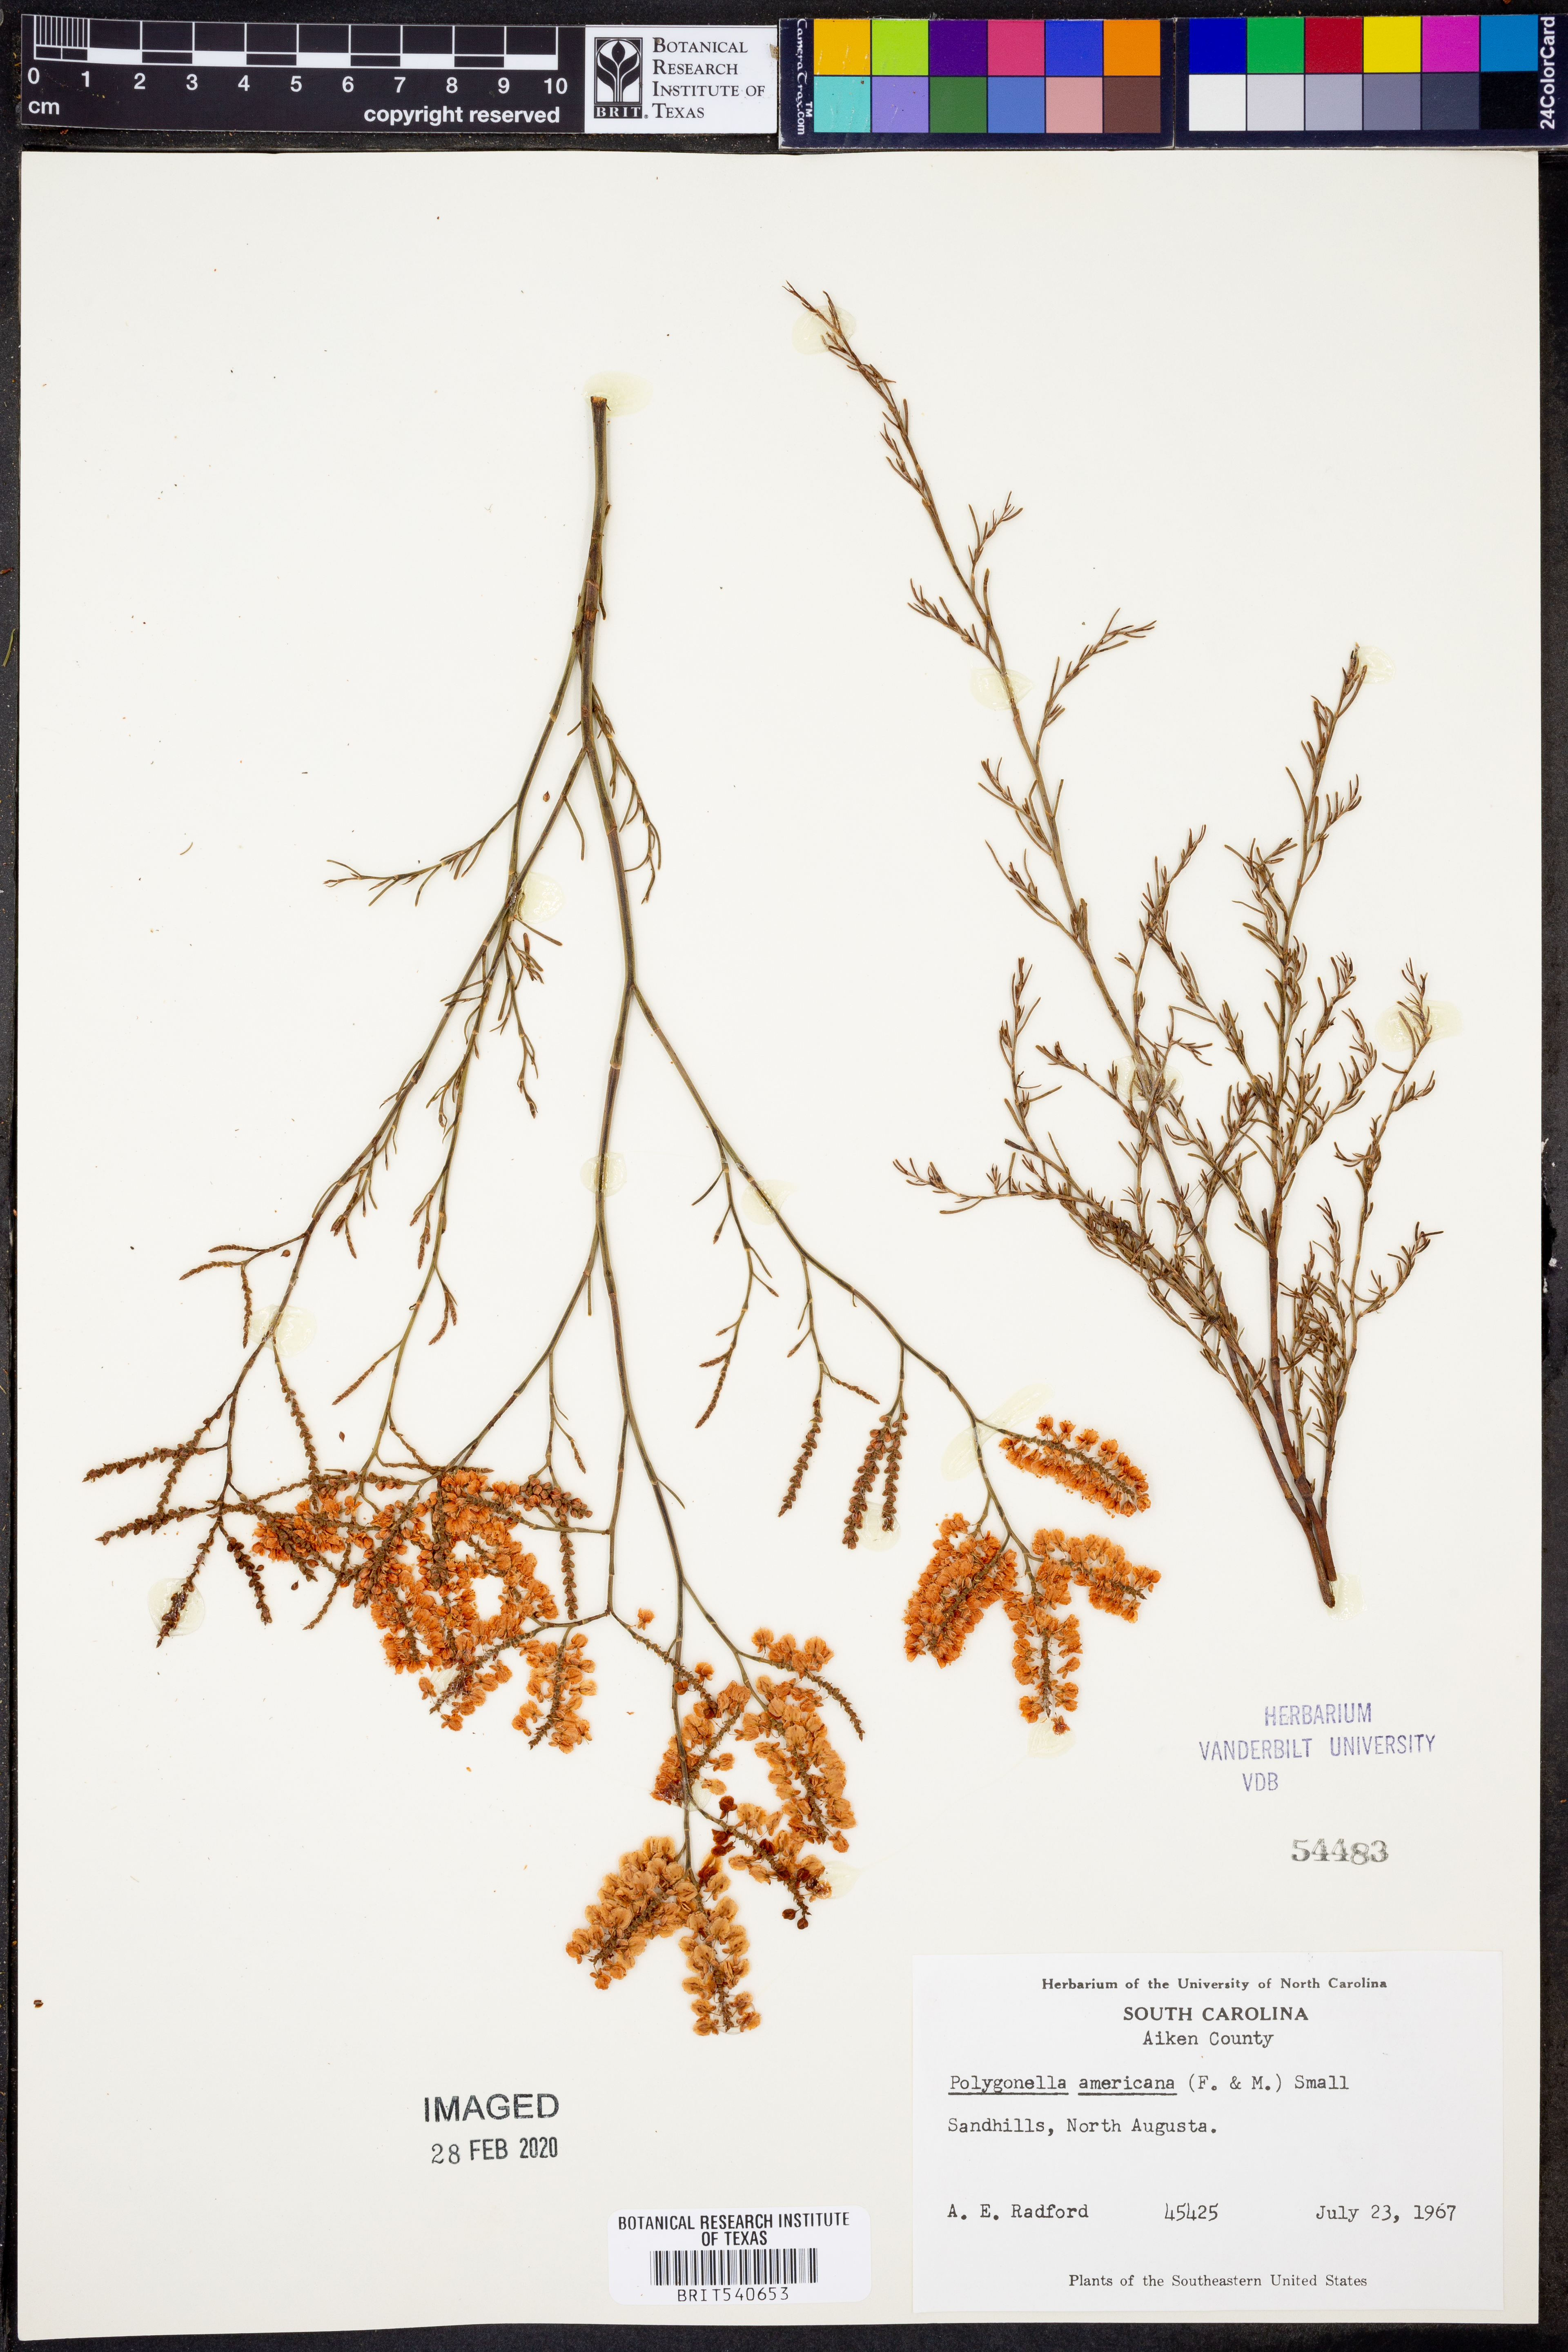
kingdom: Plantae
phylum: Tracheophyta
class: Magnoliopsida
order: Caryophyllales
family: Polygonaceae
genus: Polygonella
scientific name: Polygonella americana
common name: Southern jointweed
